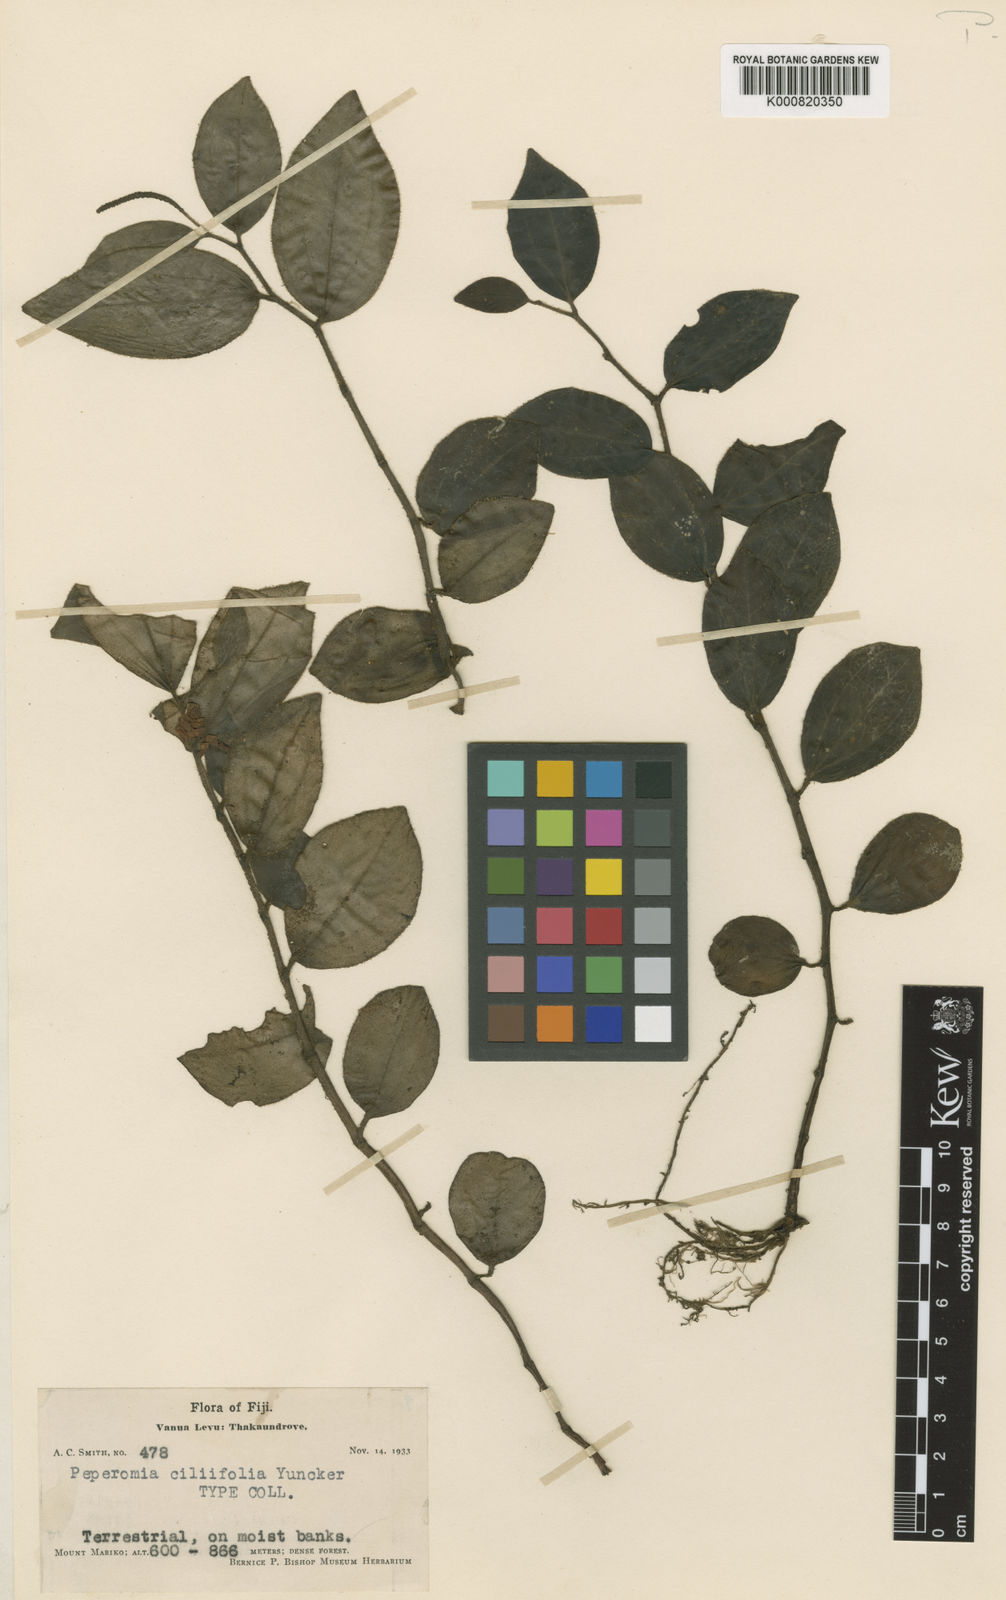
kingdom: Plantae
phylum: Tracheophyta
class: Magnoliopsida
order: Piperales
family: Piperaceae
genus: Peperomia
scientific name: Peperomia ciliifolia
